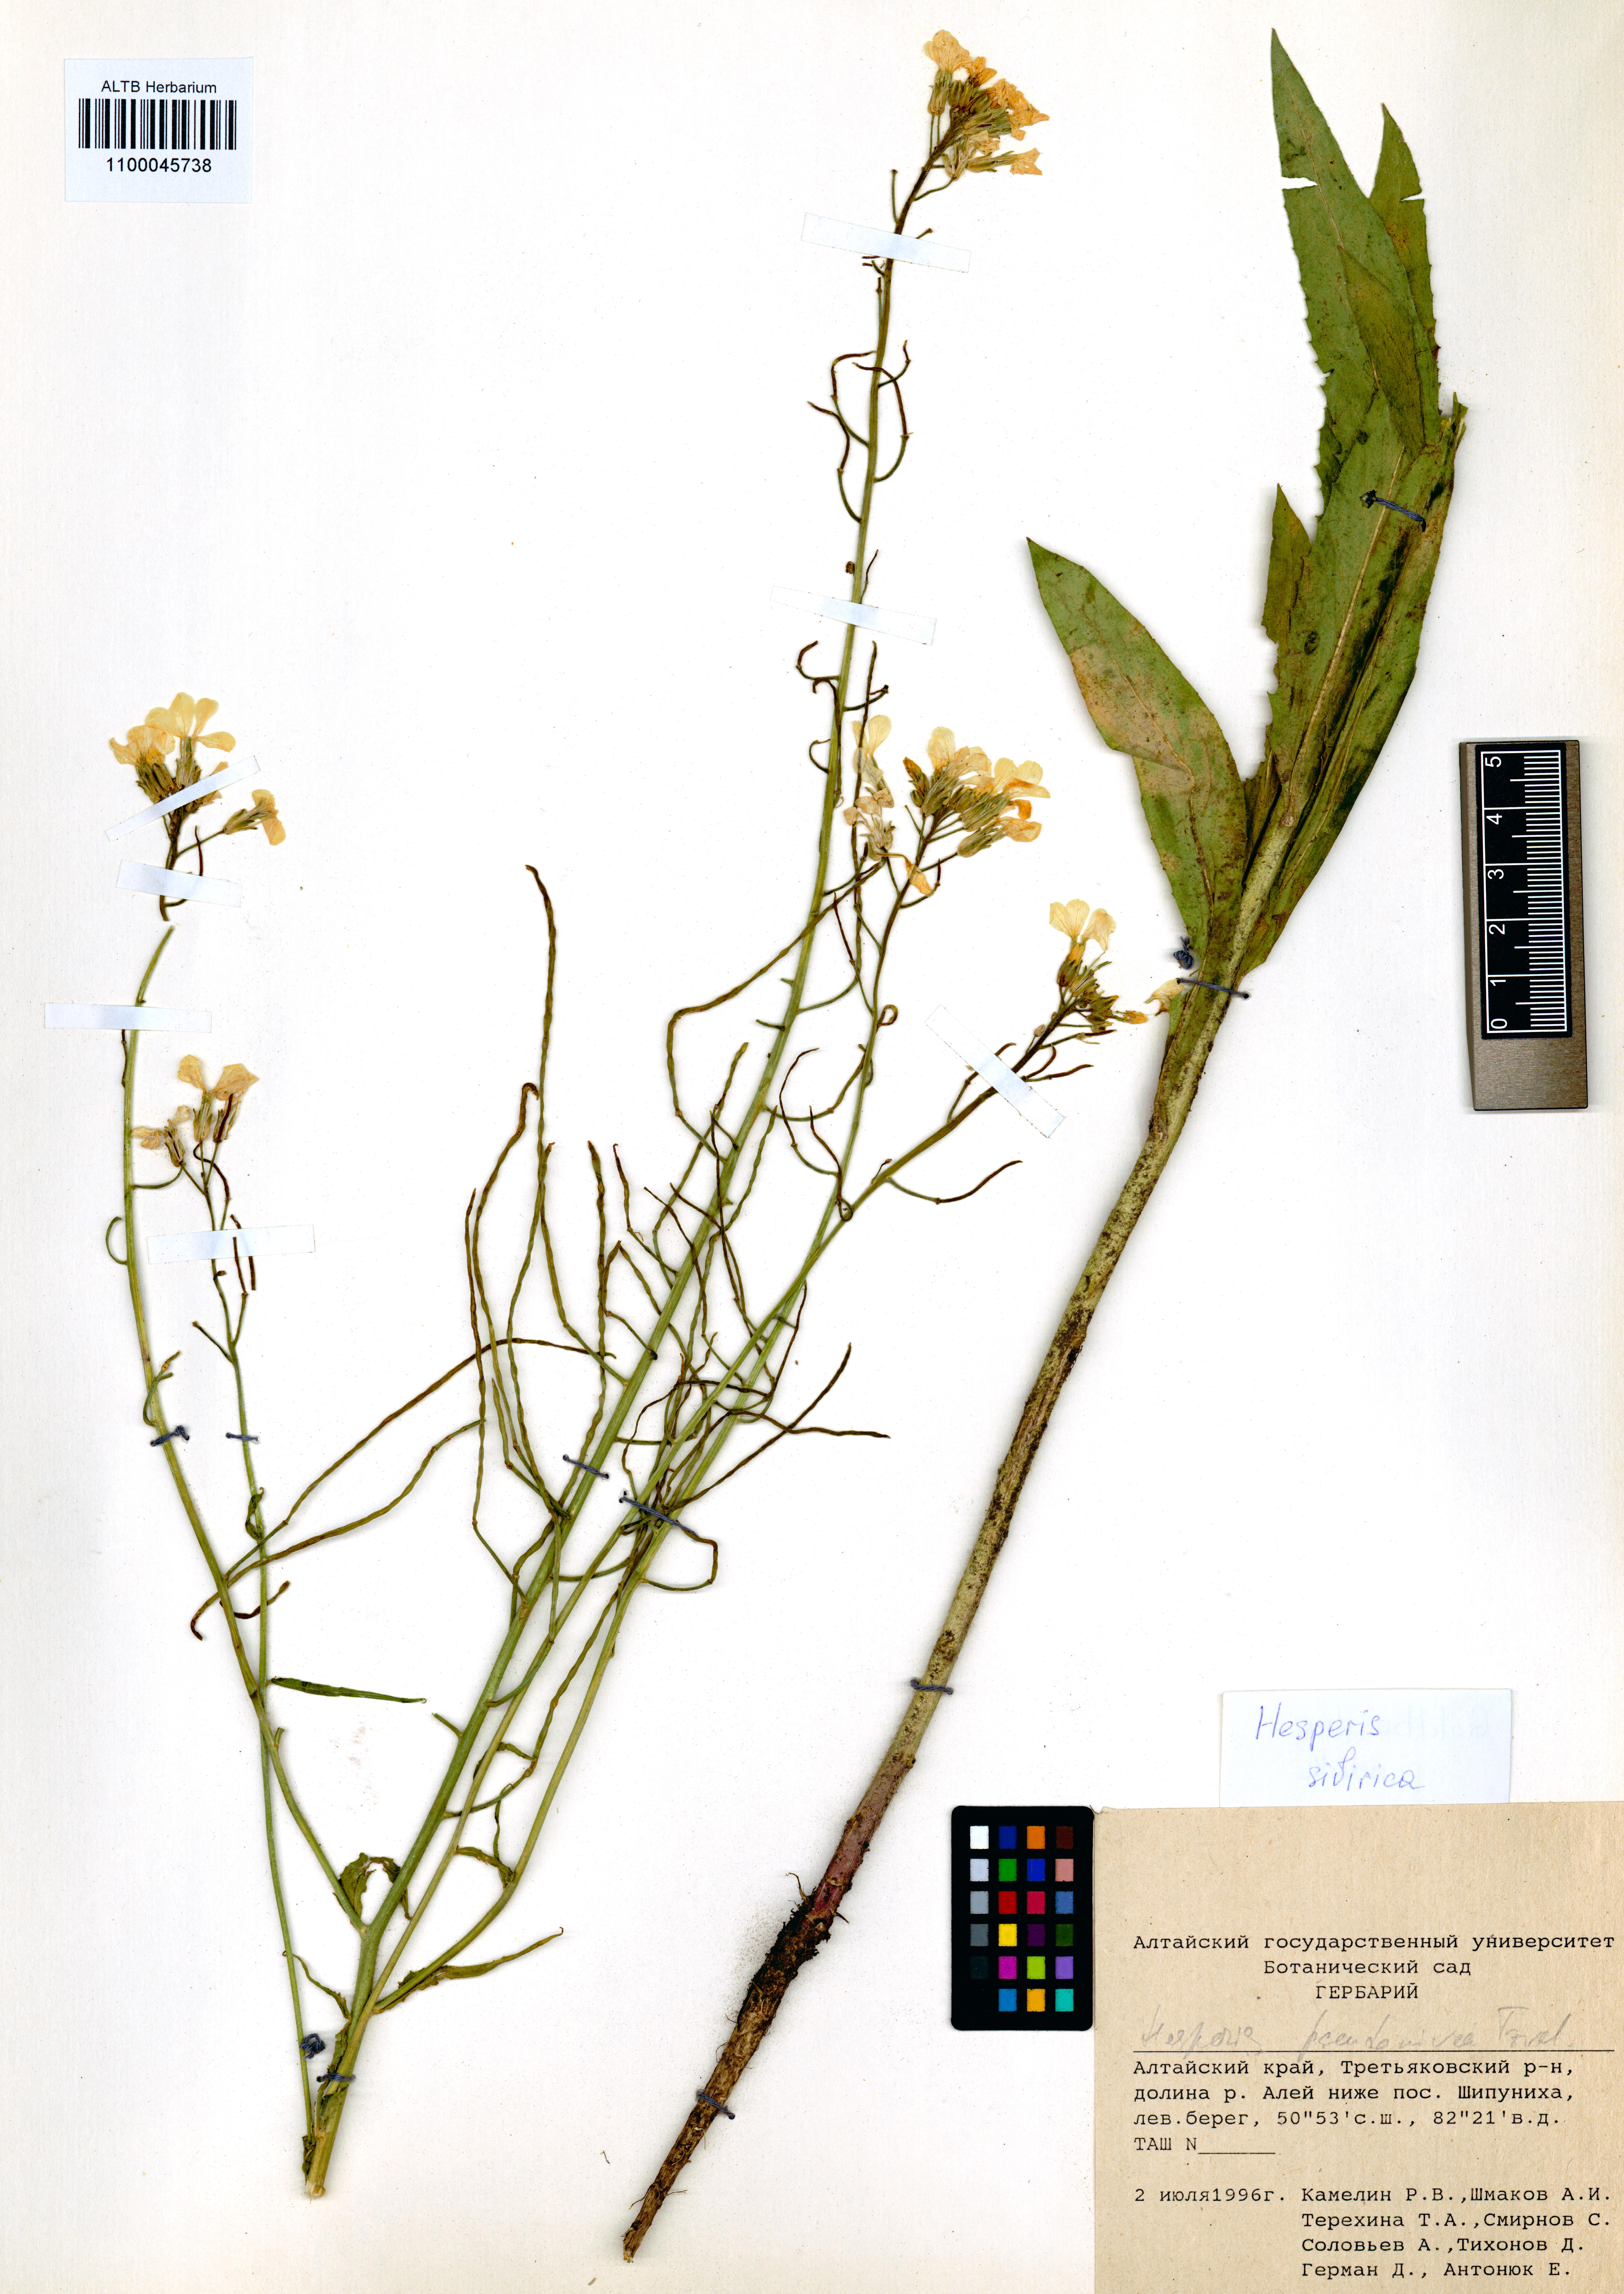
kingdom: Plantae
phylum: Tracheophyta
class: Magnoliopsida
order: Brassicales
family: Brassicaceae
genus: Hesperis
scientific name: Hesperis sibirica
